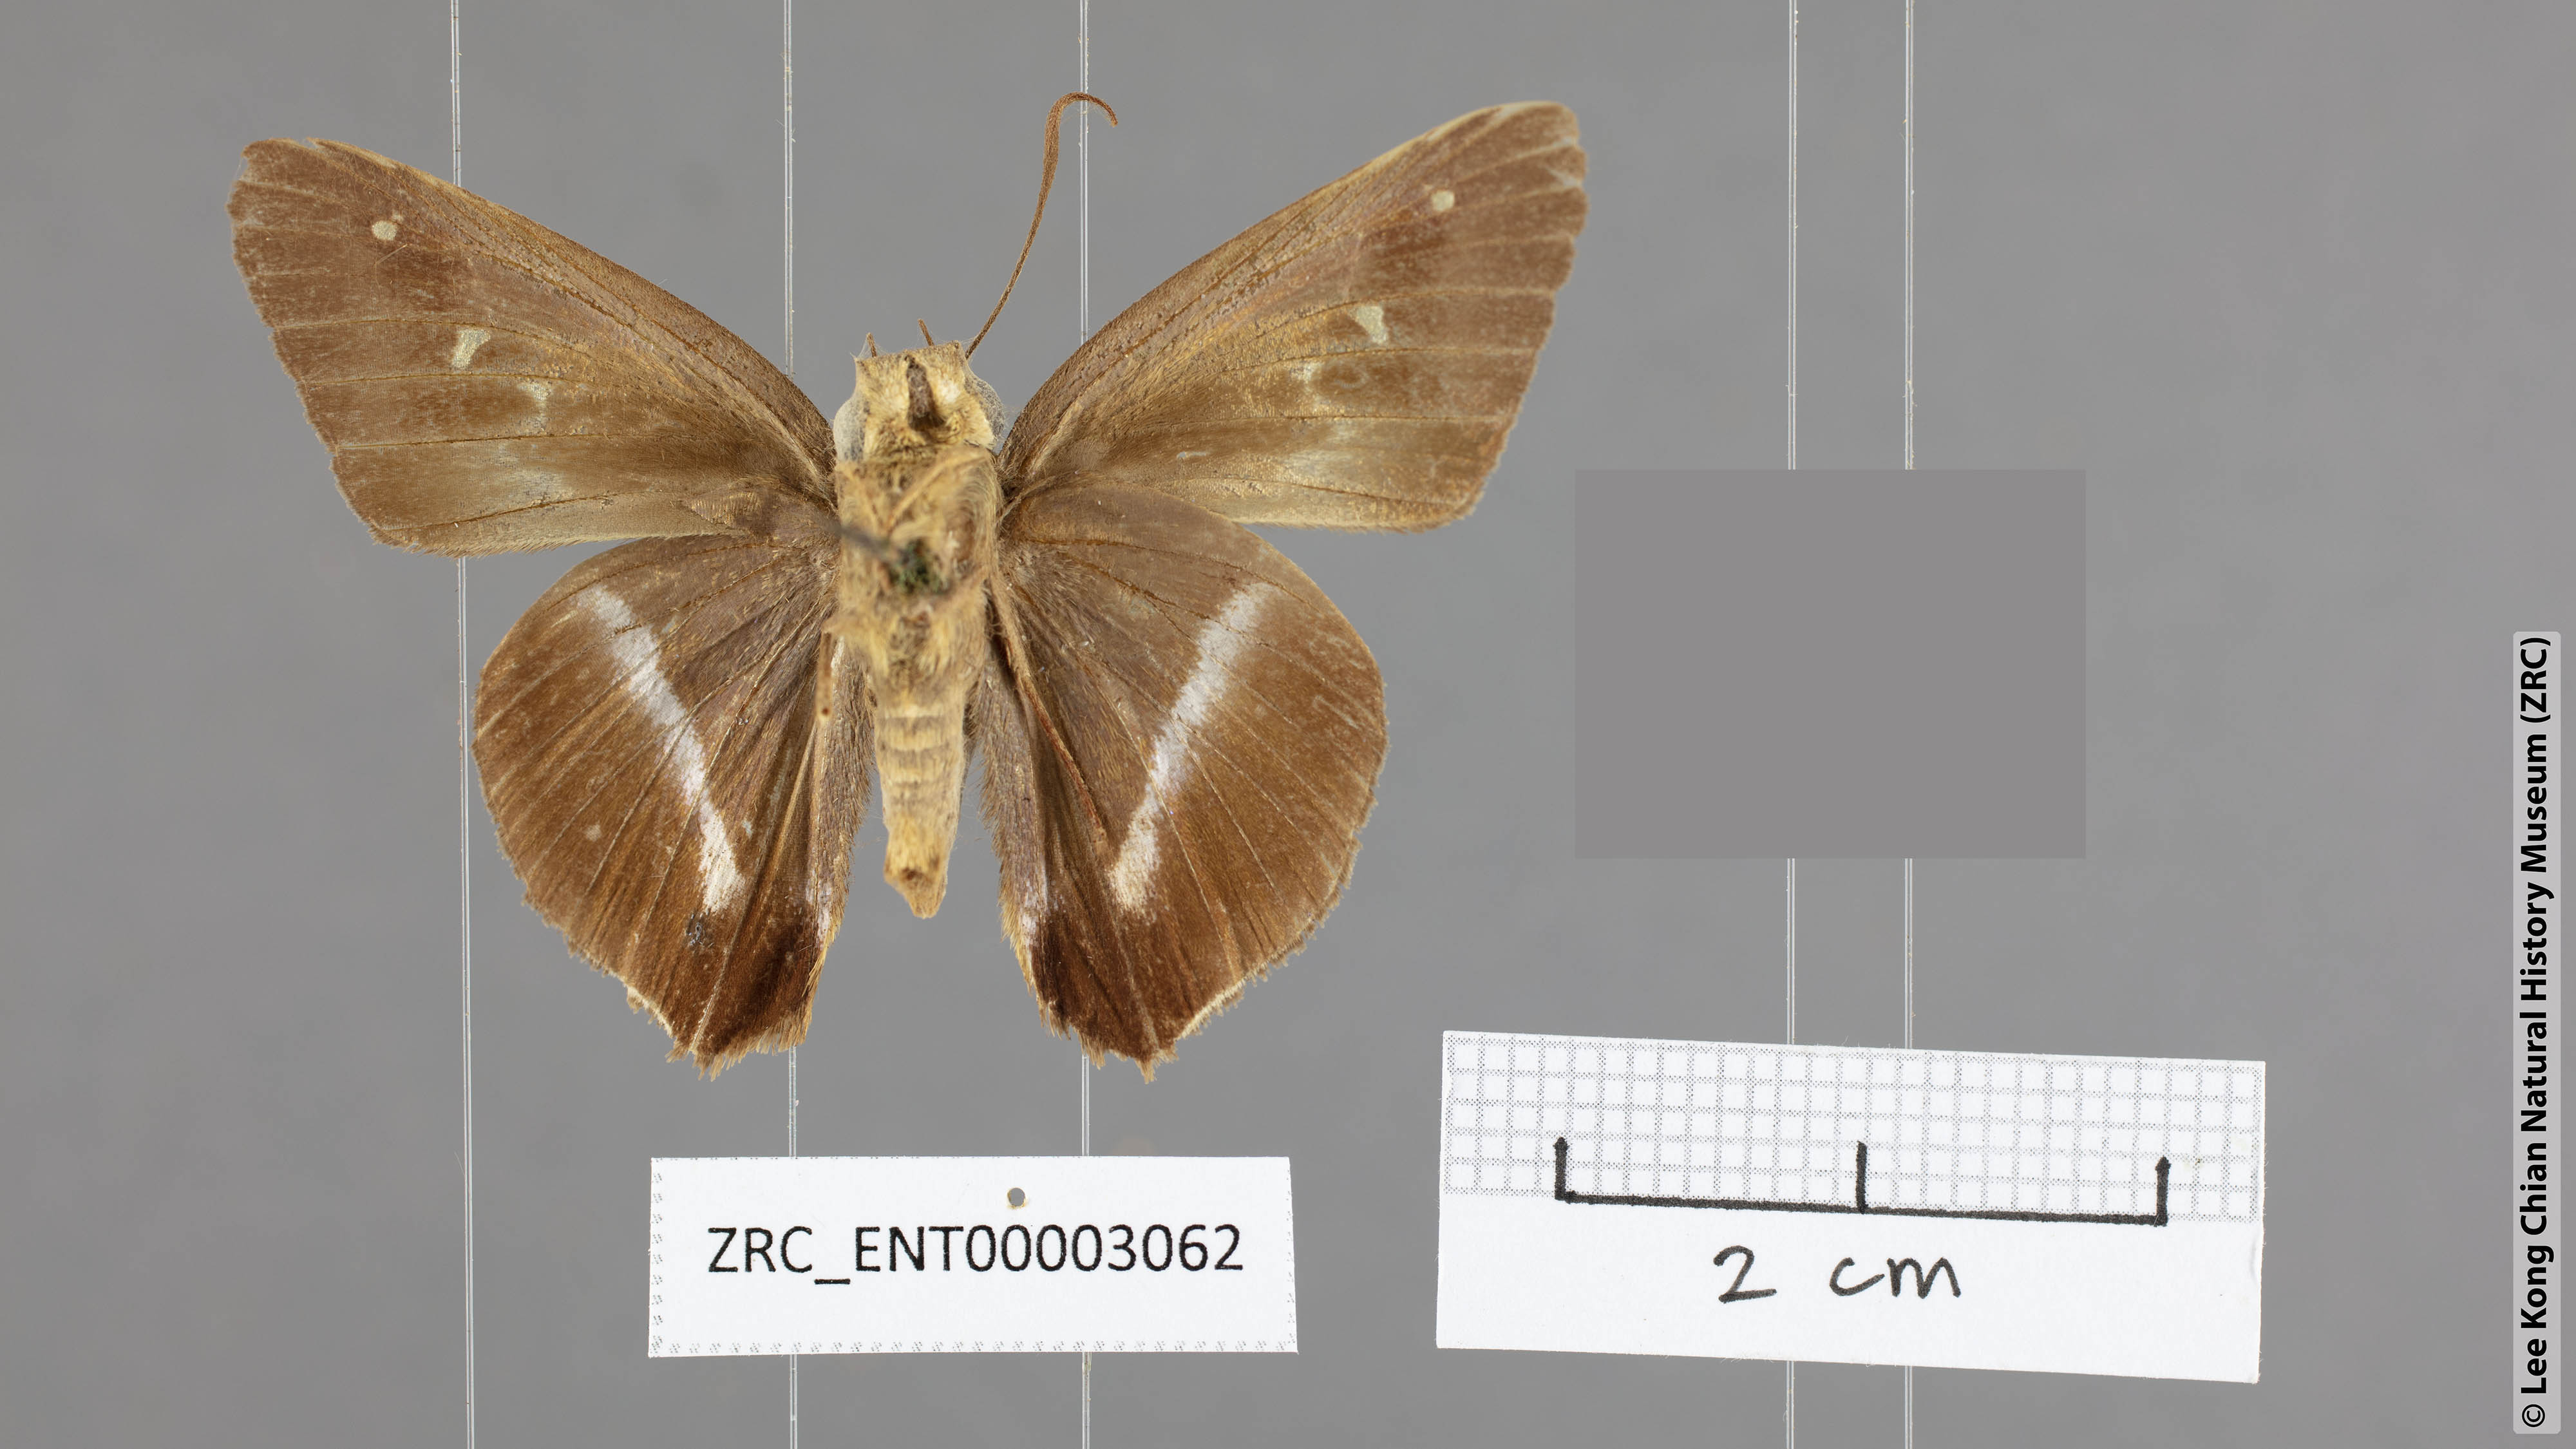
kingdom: Animalia
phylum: Arthropoda
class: Insecta
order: Lepidoptera
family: Hesperiidae
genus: Hasora
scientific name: Hasora khoda
